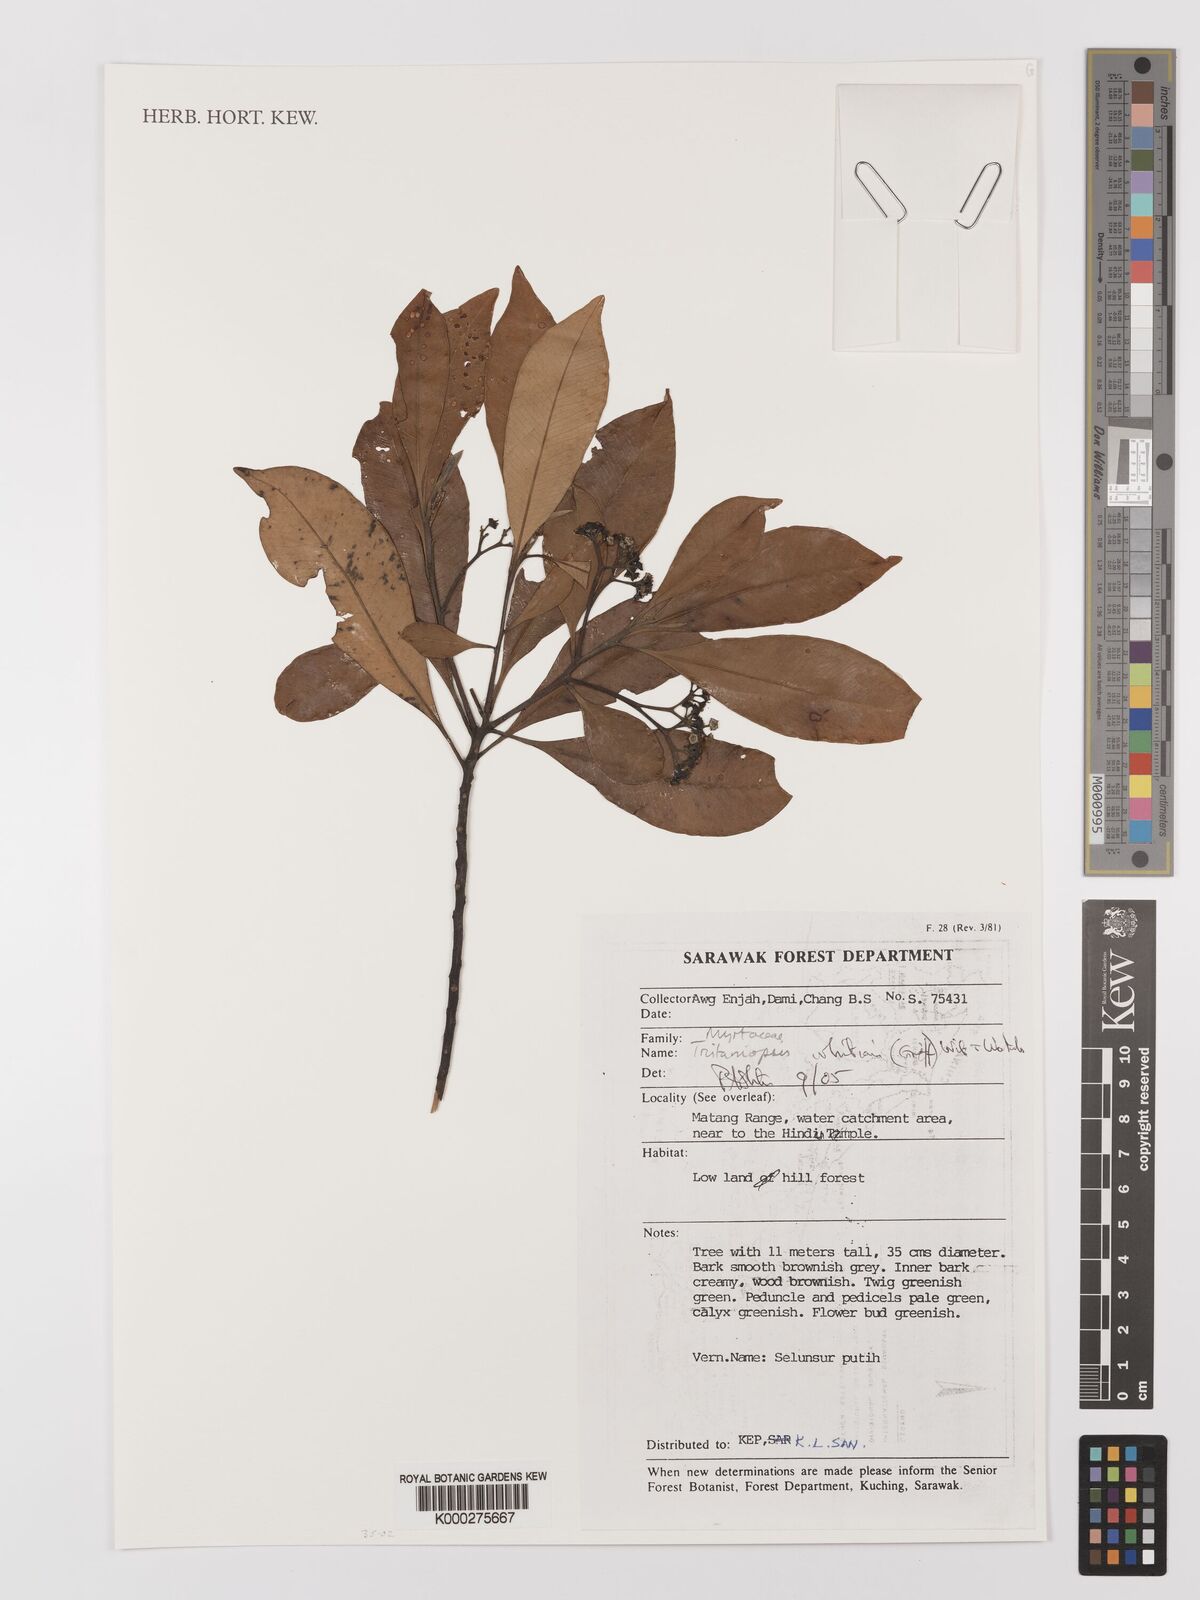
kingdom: Plantae
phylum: Tracheophyta
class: Magnoliopsida
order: Myrtales
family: Myrtaceae
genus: Tristaniopsis
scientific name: Tristaniopsis whiteana
